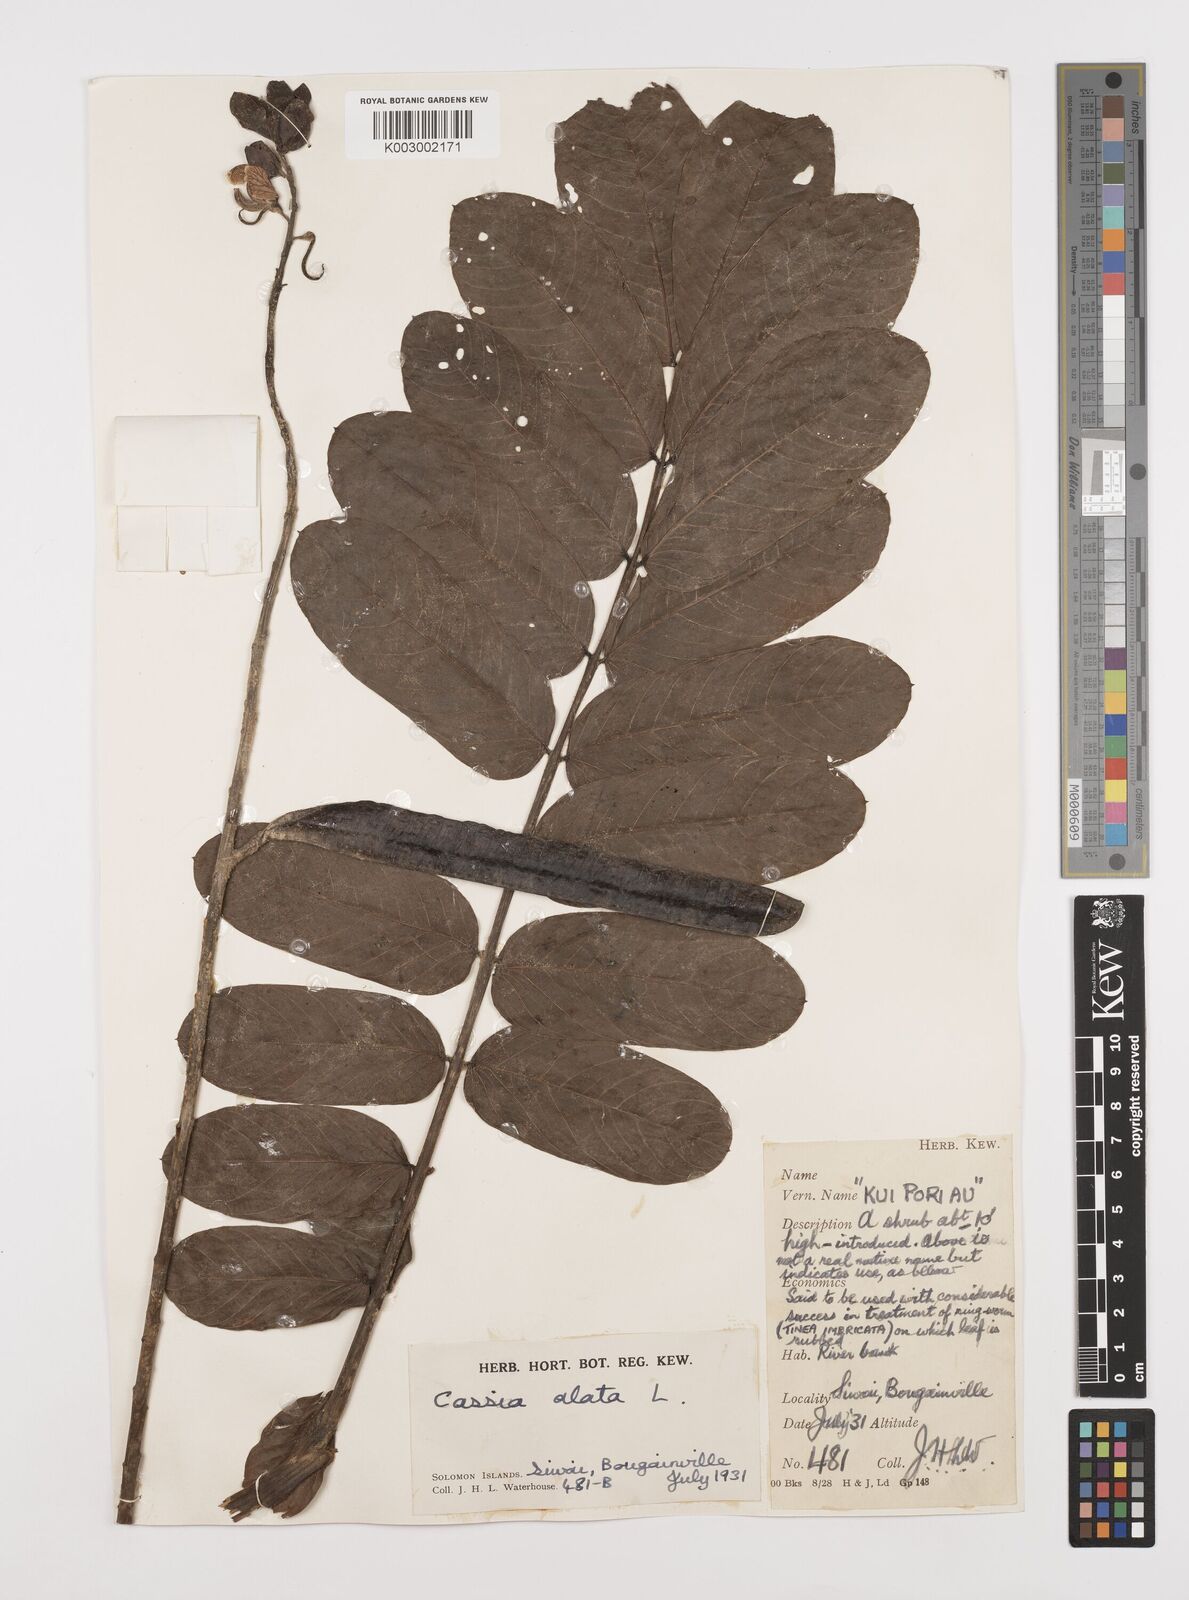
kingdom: Plantae
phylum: Tracheophyta
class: Magnoliopsida
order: Fabales
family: Fabaceae
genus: Senna
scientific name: Senna alata
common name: Emperor's candlesticks
